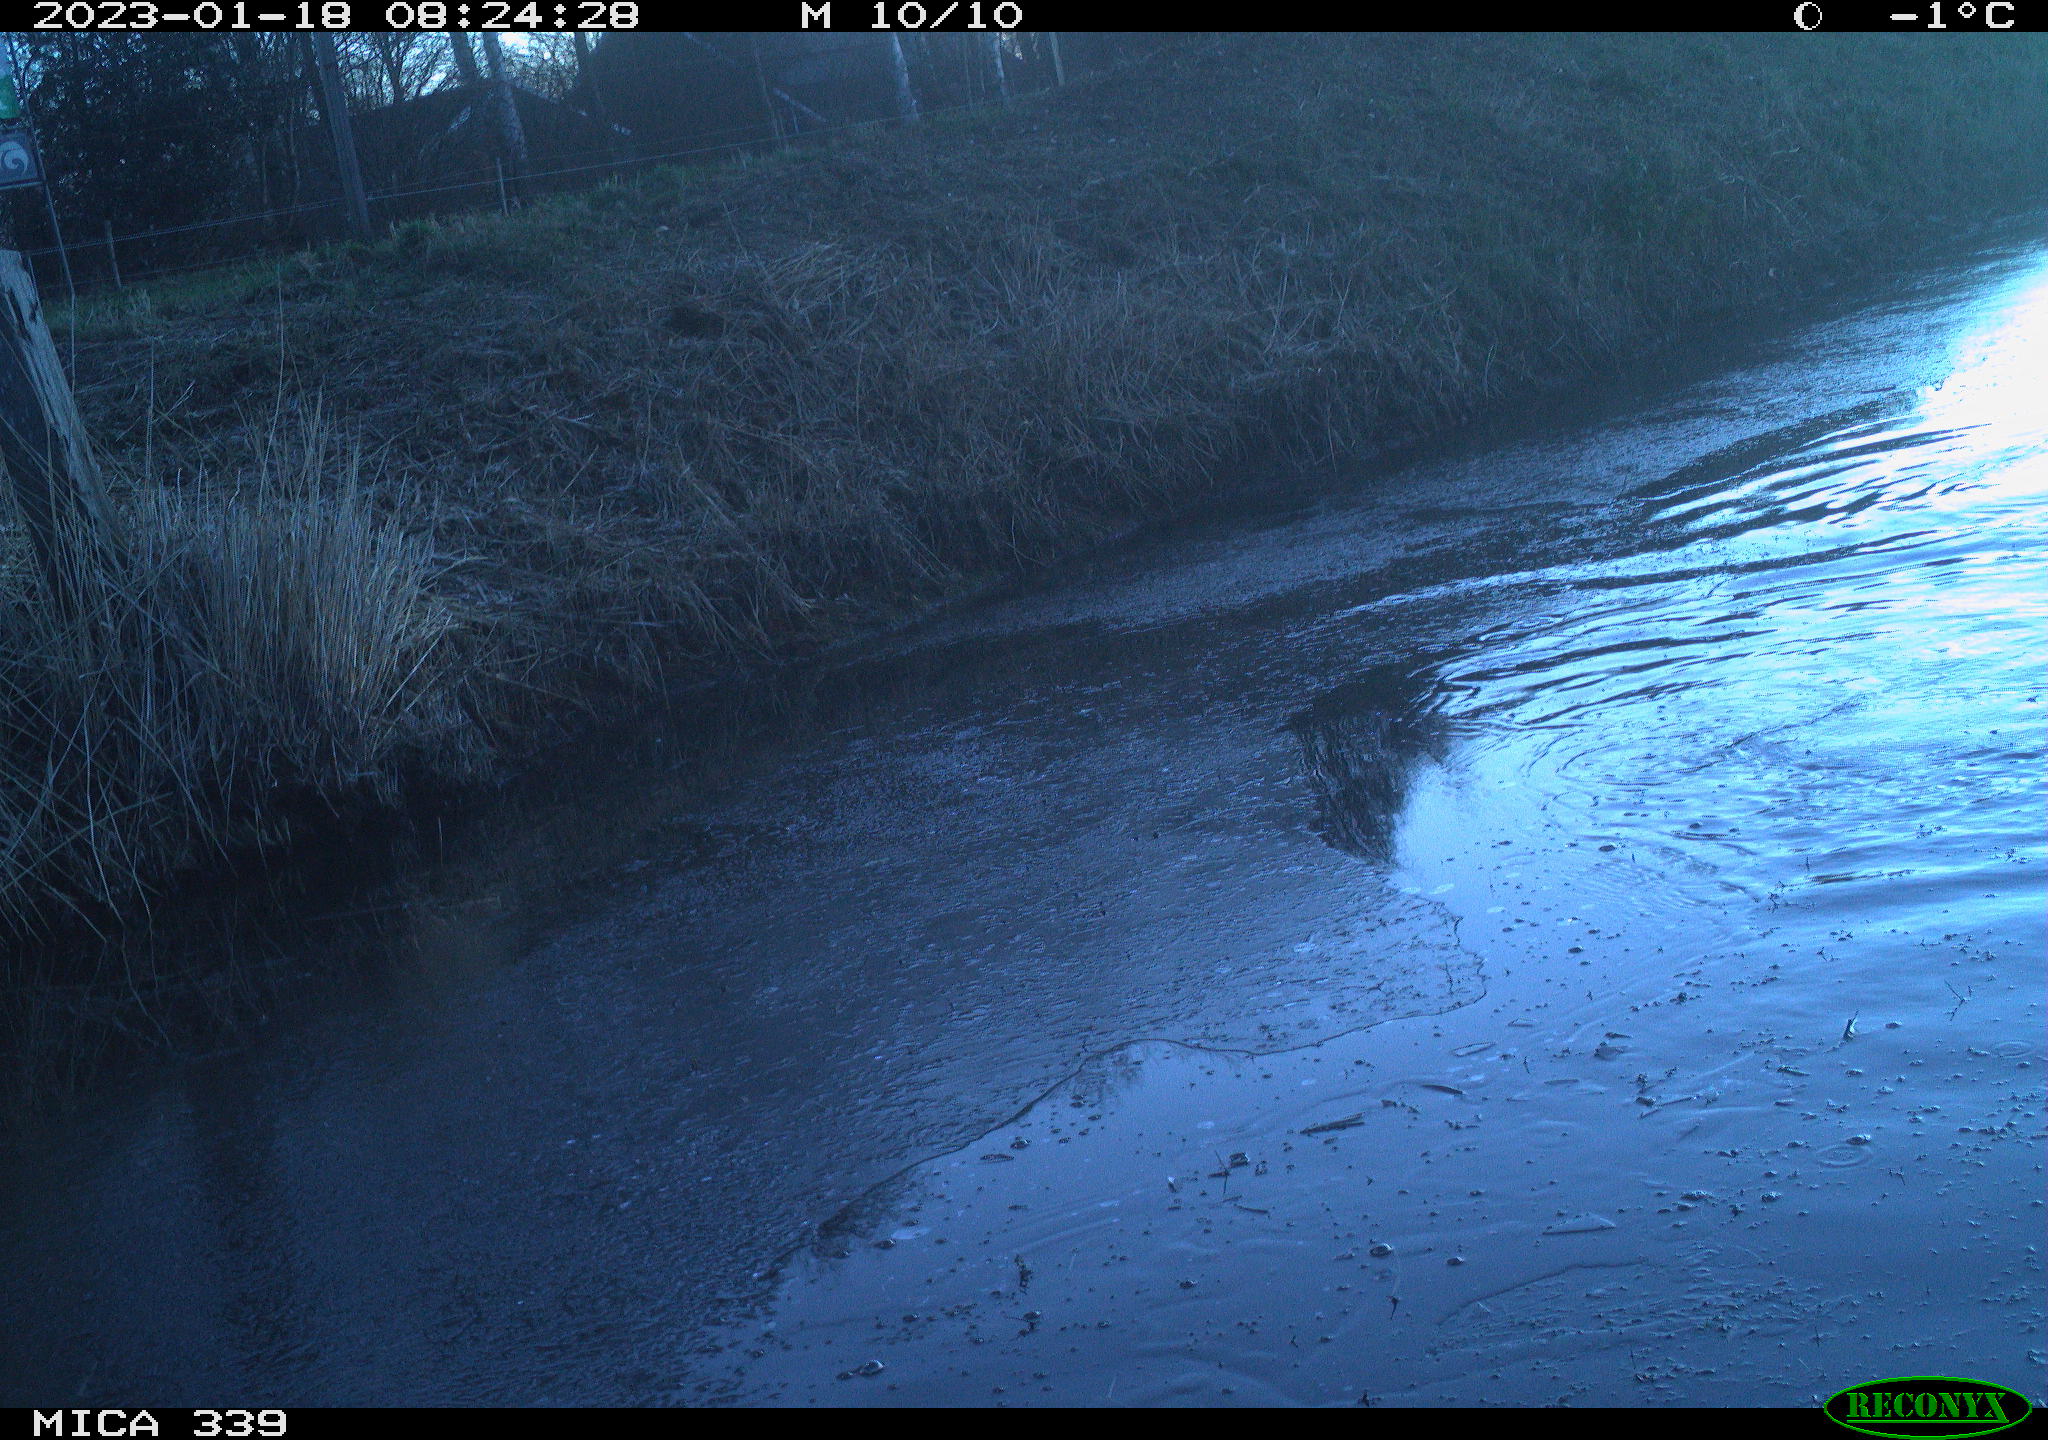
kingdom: Animalia
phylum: Chordata
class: Aves
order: Suliformes
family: Phalacrocoracidae
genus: Phalacrocorax
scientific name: Phalacrocorax carbo
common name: Great cormorant
